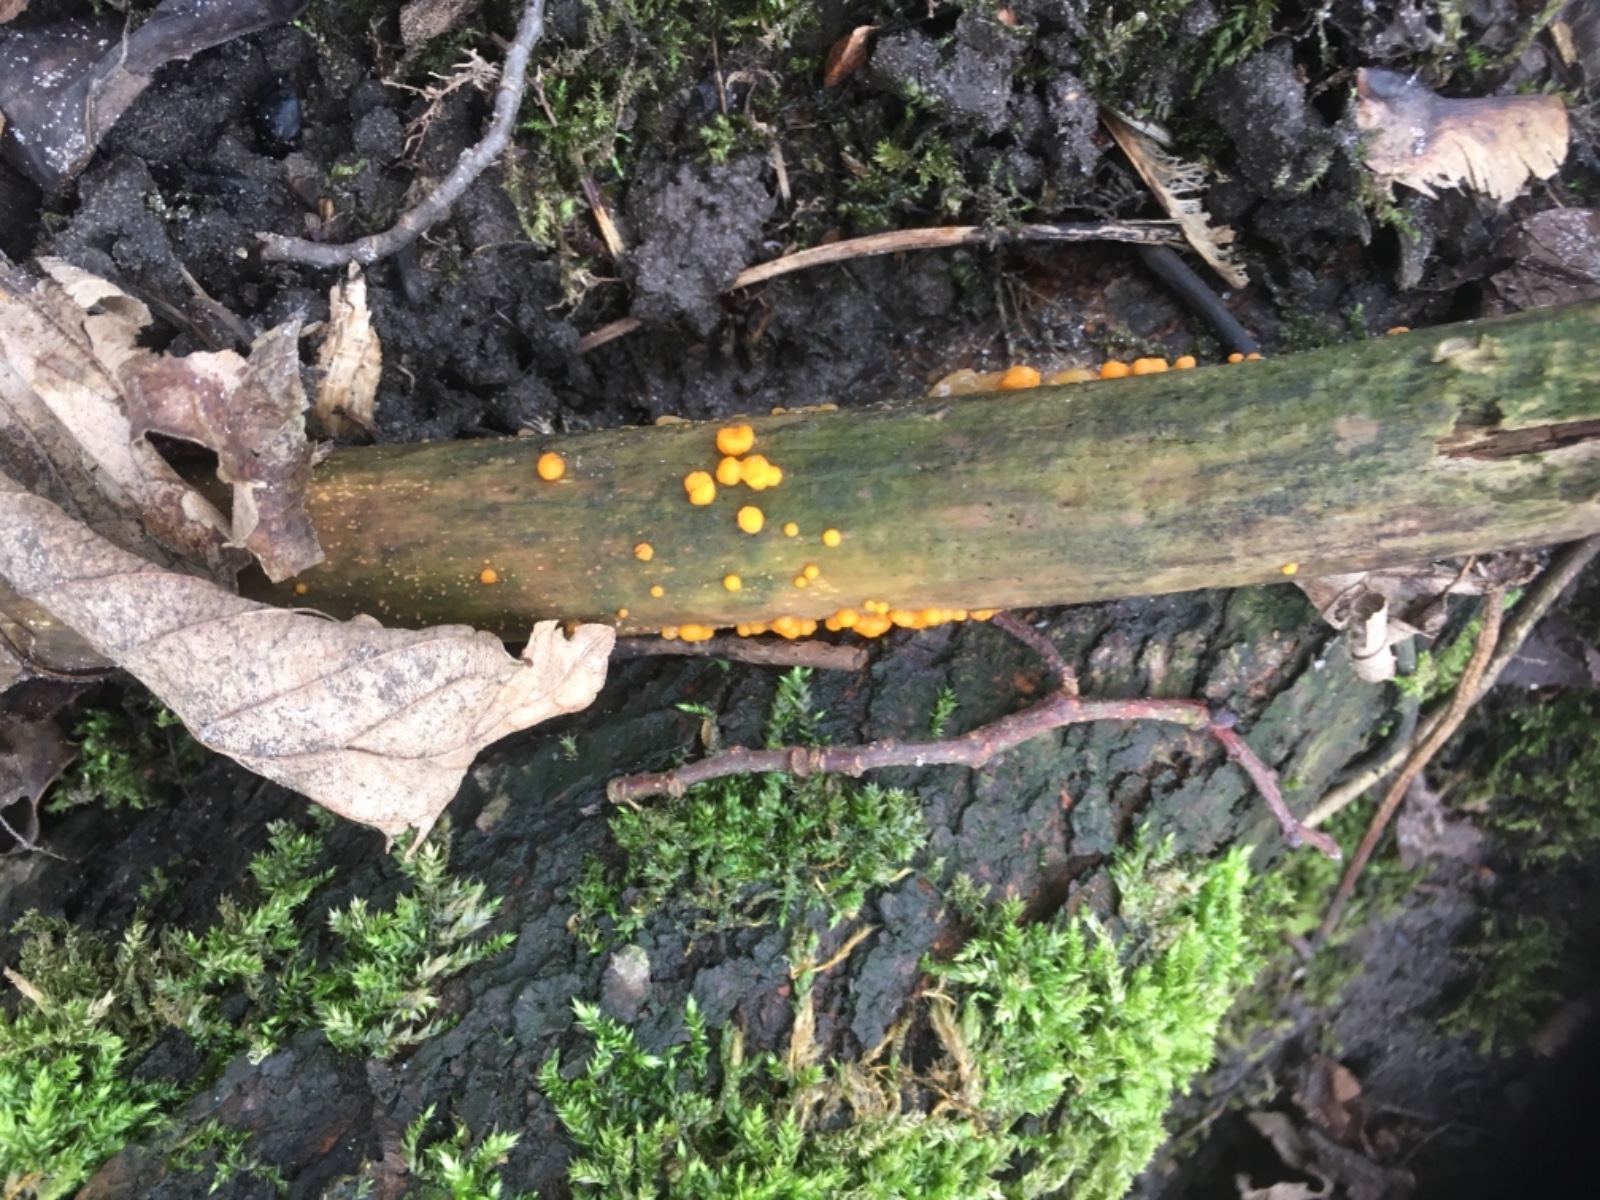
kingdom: Fungi
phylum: Basidiomycota
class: Dacrymycetes
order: Dacrymycetales
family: Dacrymycetaceae
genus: Dacrymyces
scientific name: Dacrymyces stillatus
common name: almindelig tåresvamp
